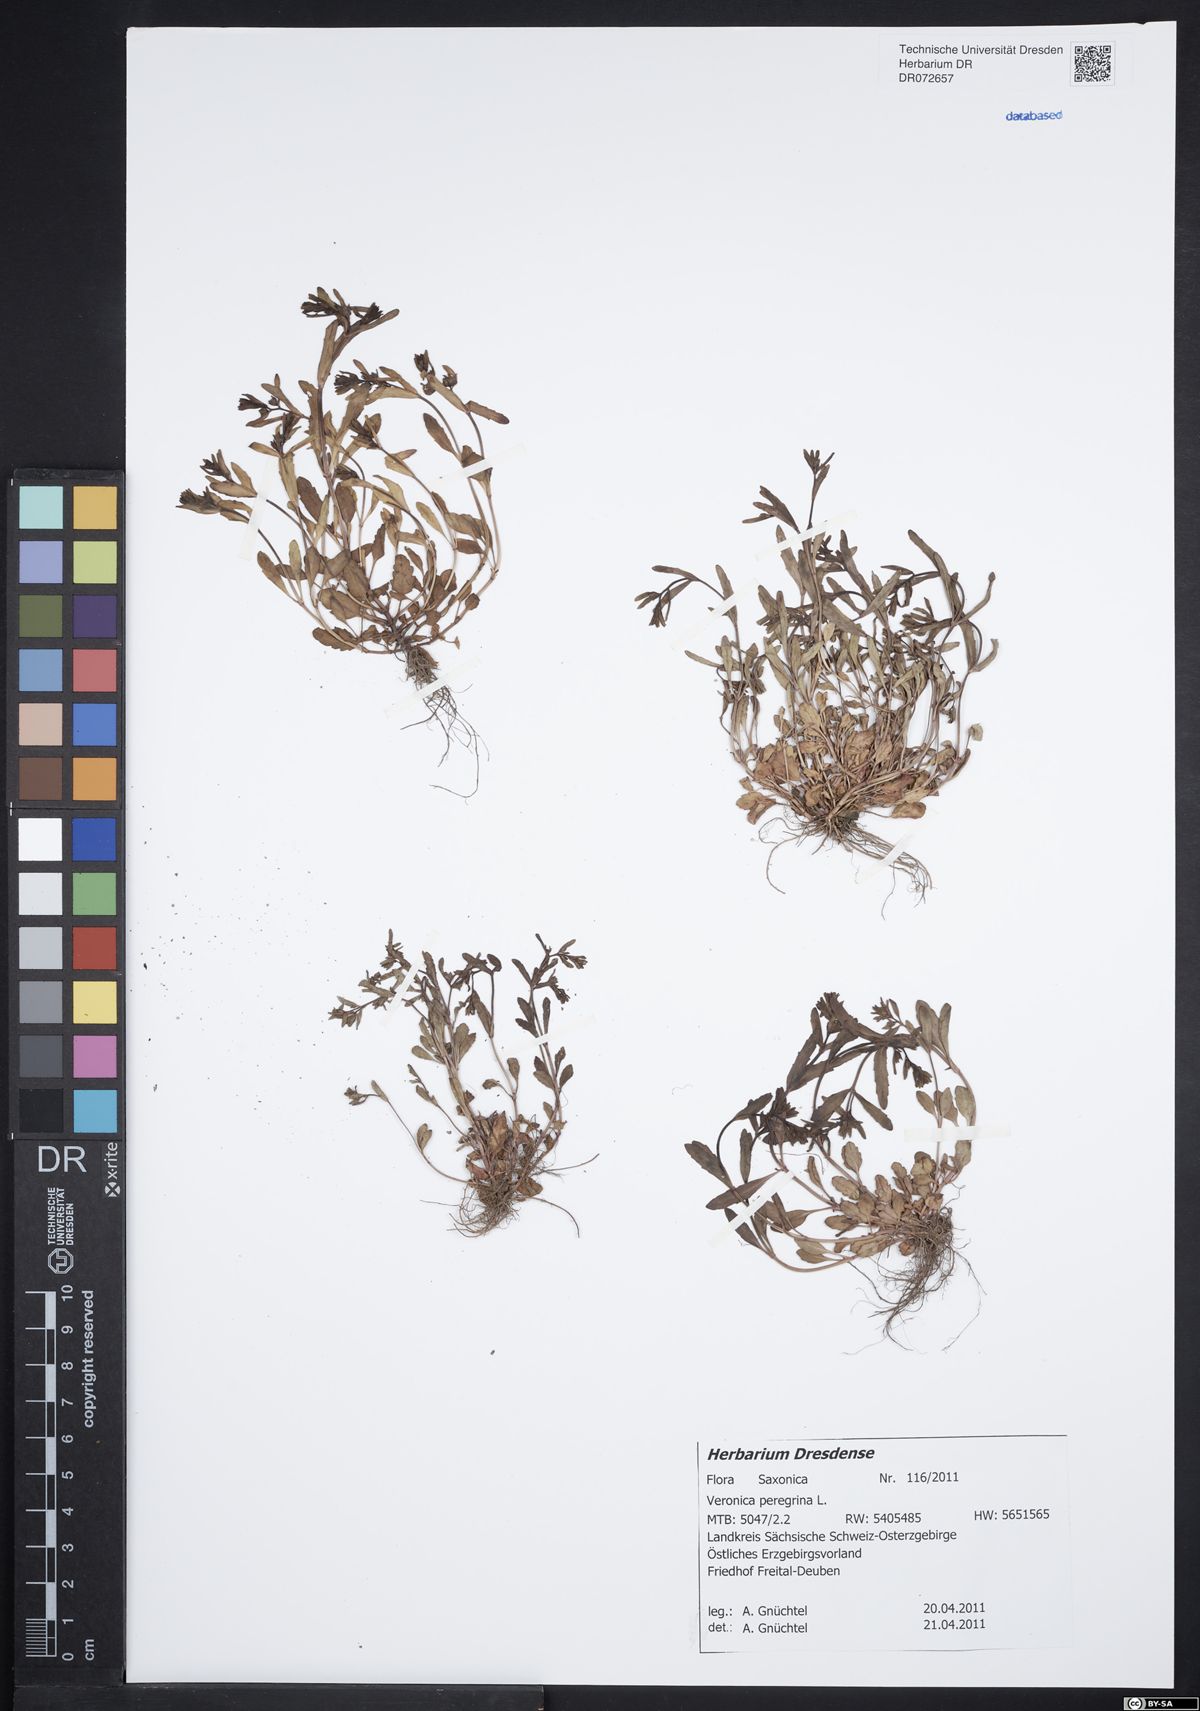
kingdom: Plantae
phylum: Tracheophyta
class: Magnoliopsida
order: Lamiales
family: Plantaginaceae
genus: Veronica
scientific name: Veronica peregrina
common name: Neckweed
